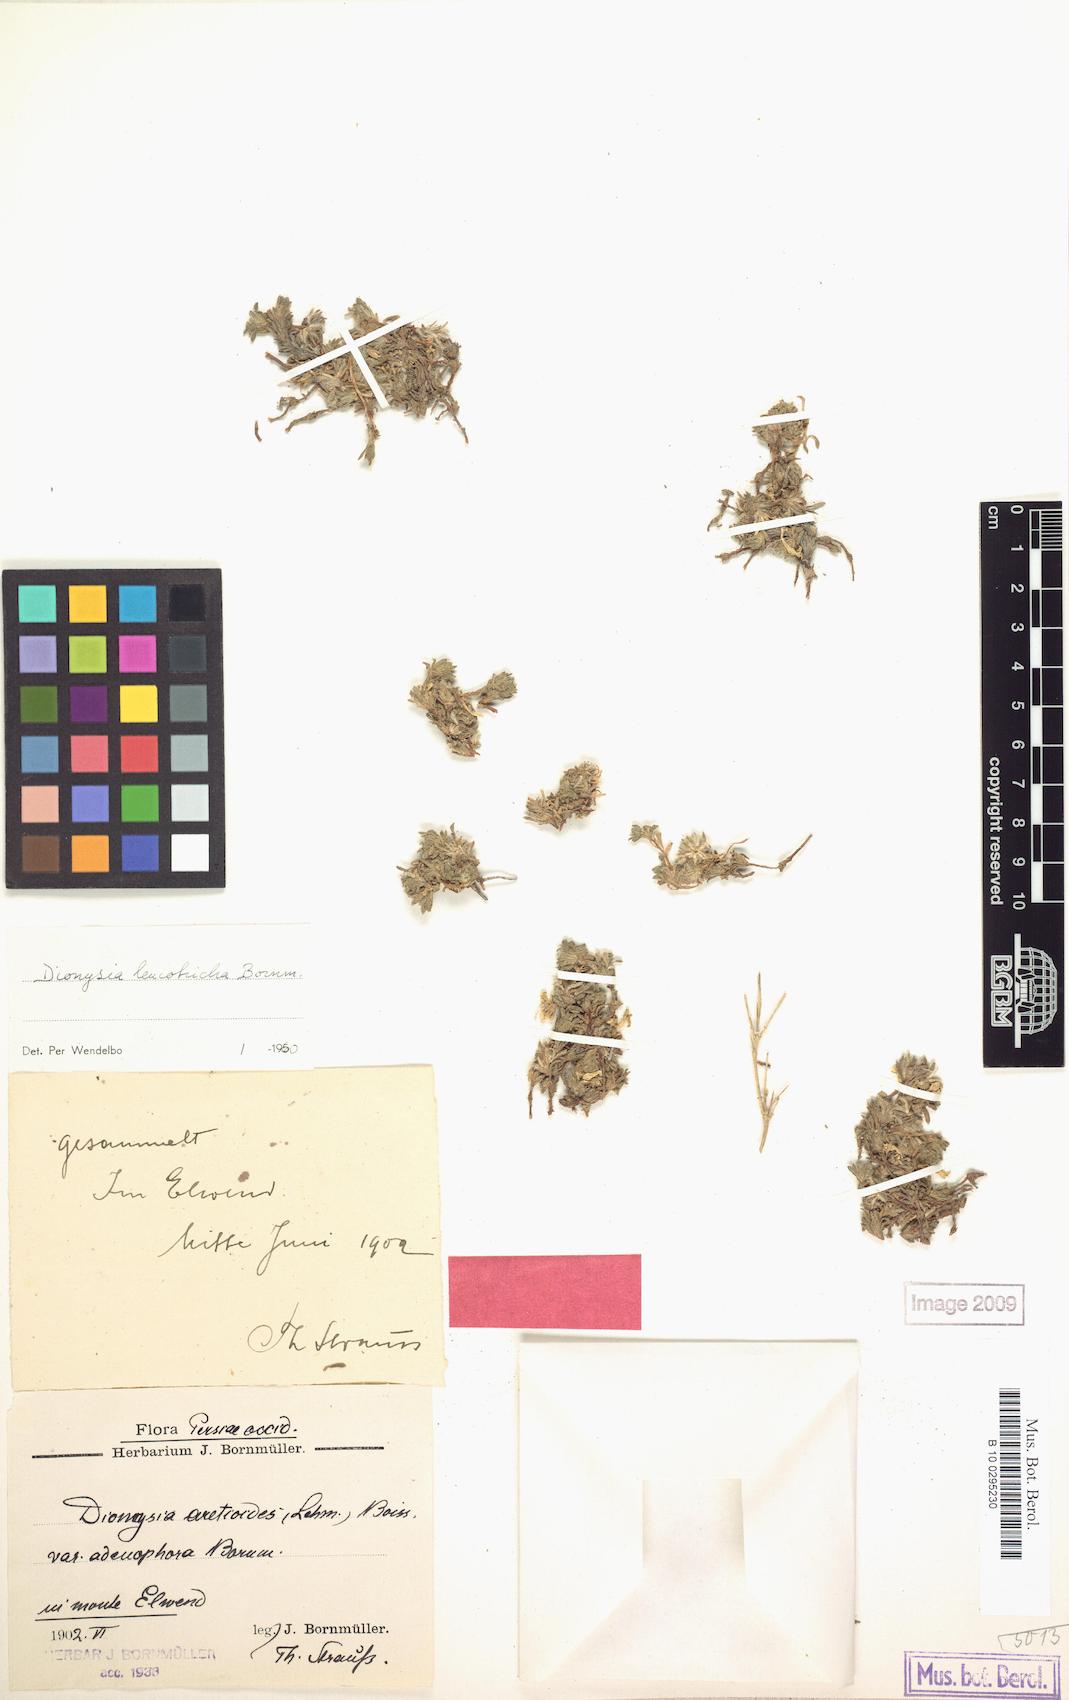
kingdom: Plantae
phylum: Tracheophyta
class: Magnoliopsida
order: Ericales
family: Primulaceae
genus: Dionysia
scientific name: Dionysia leucotricha
